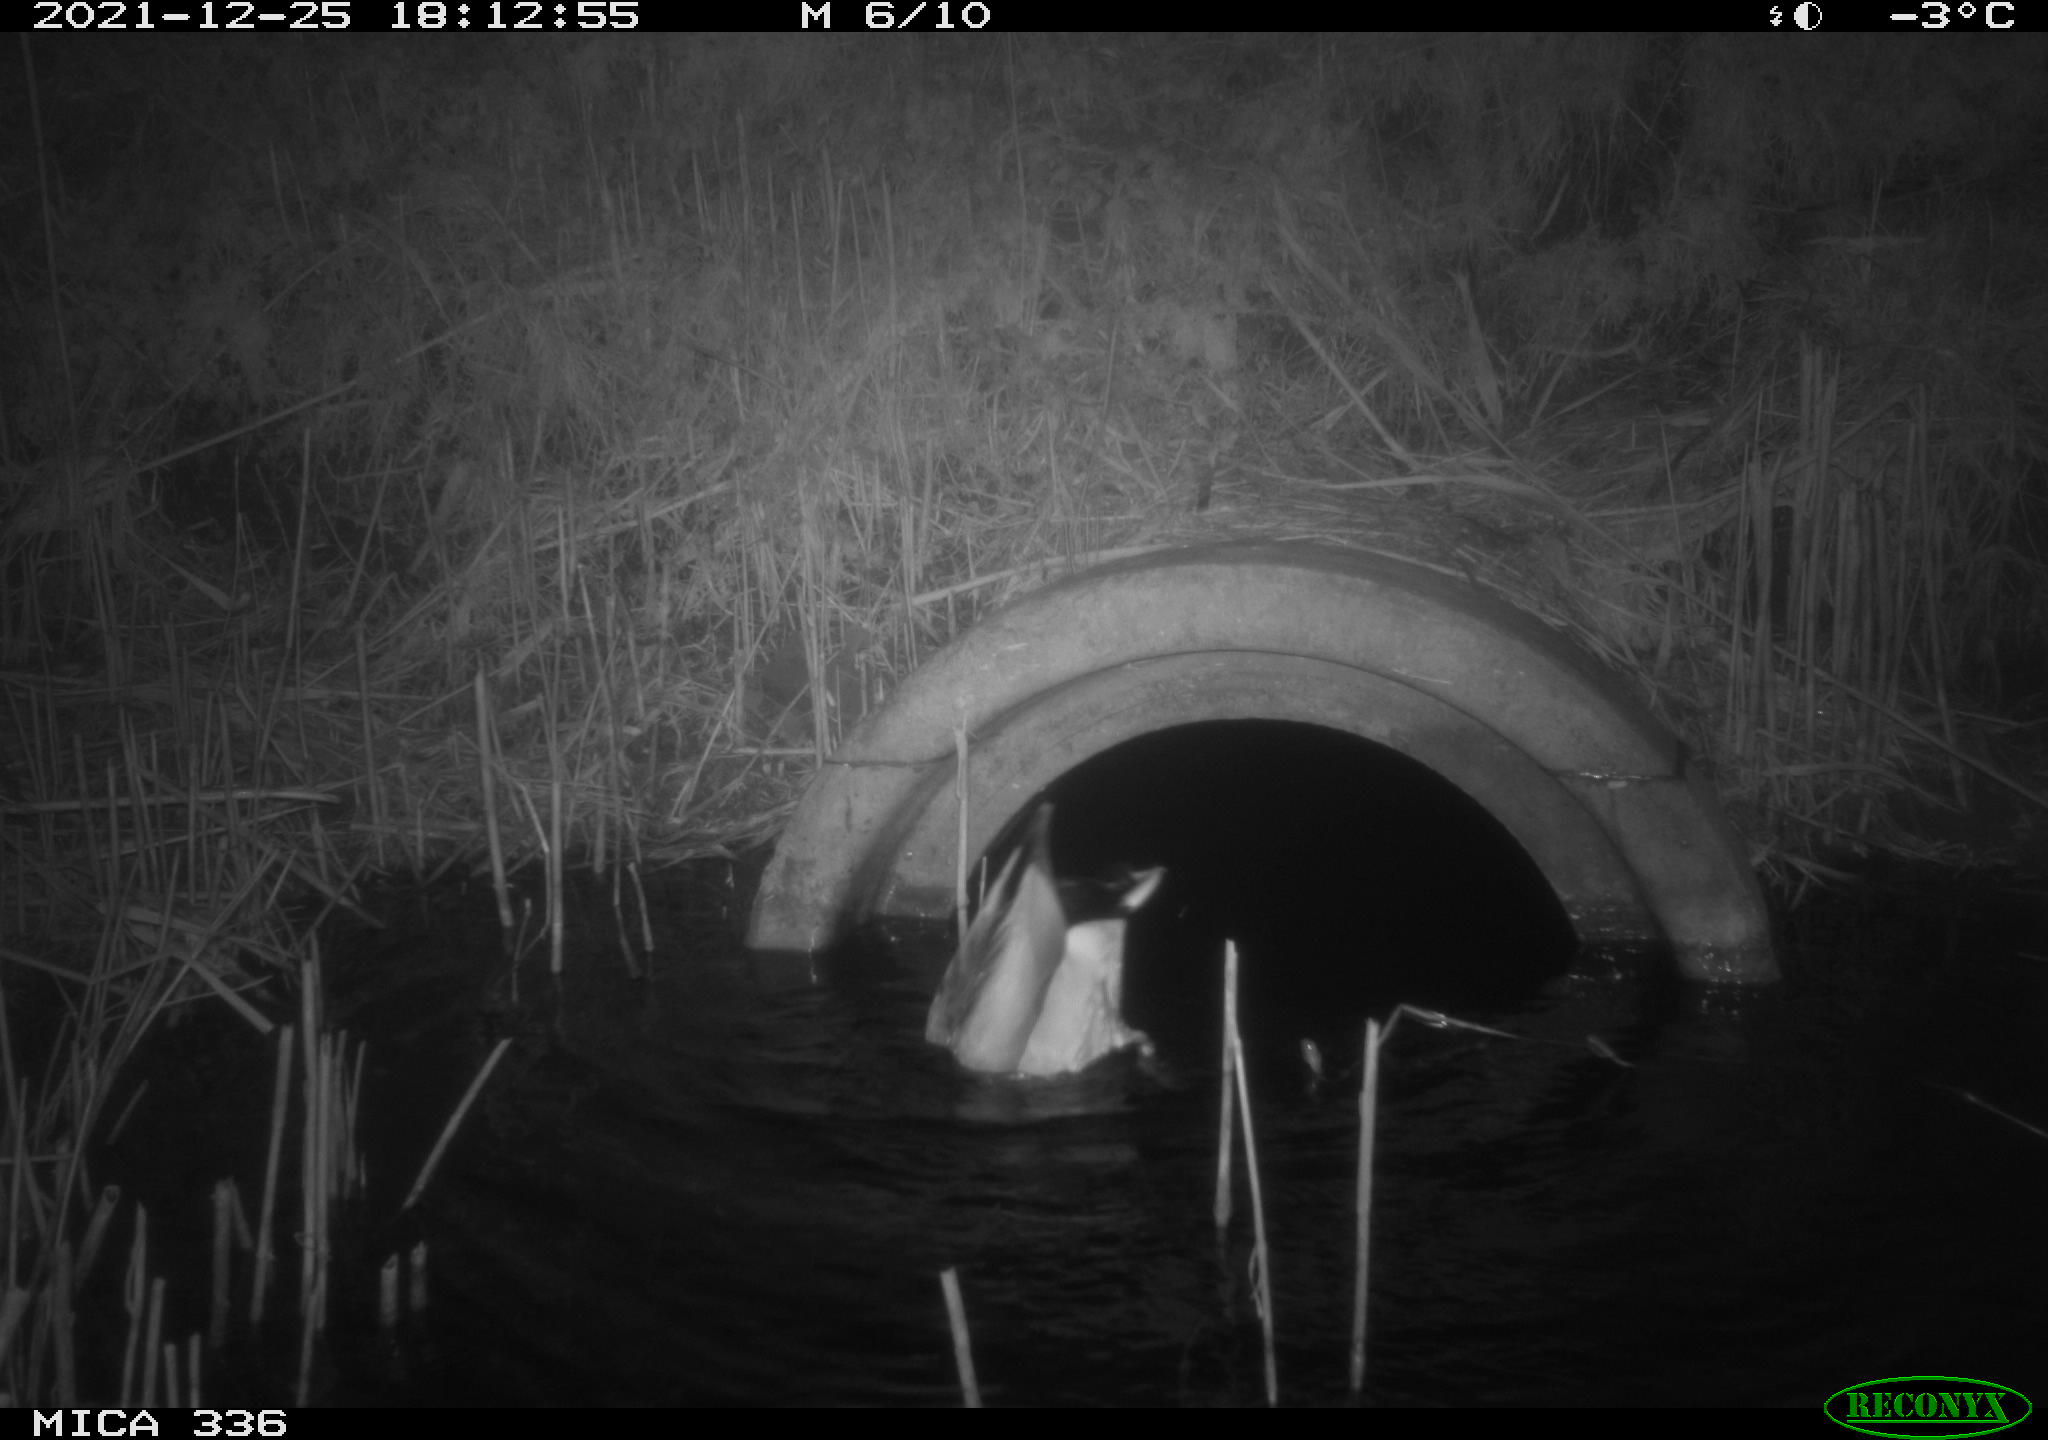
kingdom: Animalia
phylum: Chordata
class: Aves
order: Anseriformes
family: Anatidae
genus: Anas
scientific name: Anas platyrhynchos
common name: Mallard
